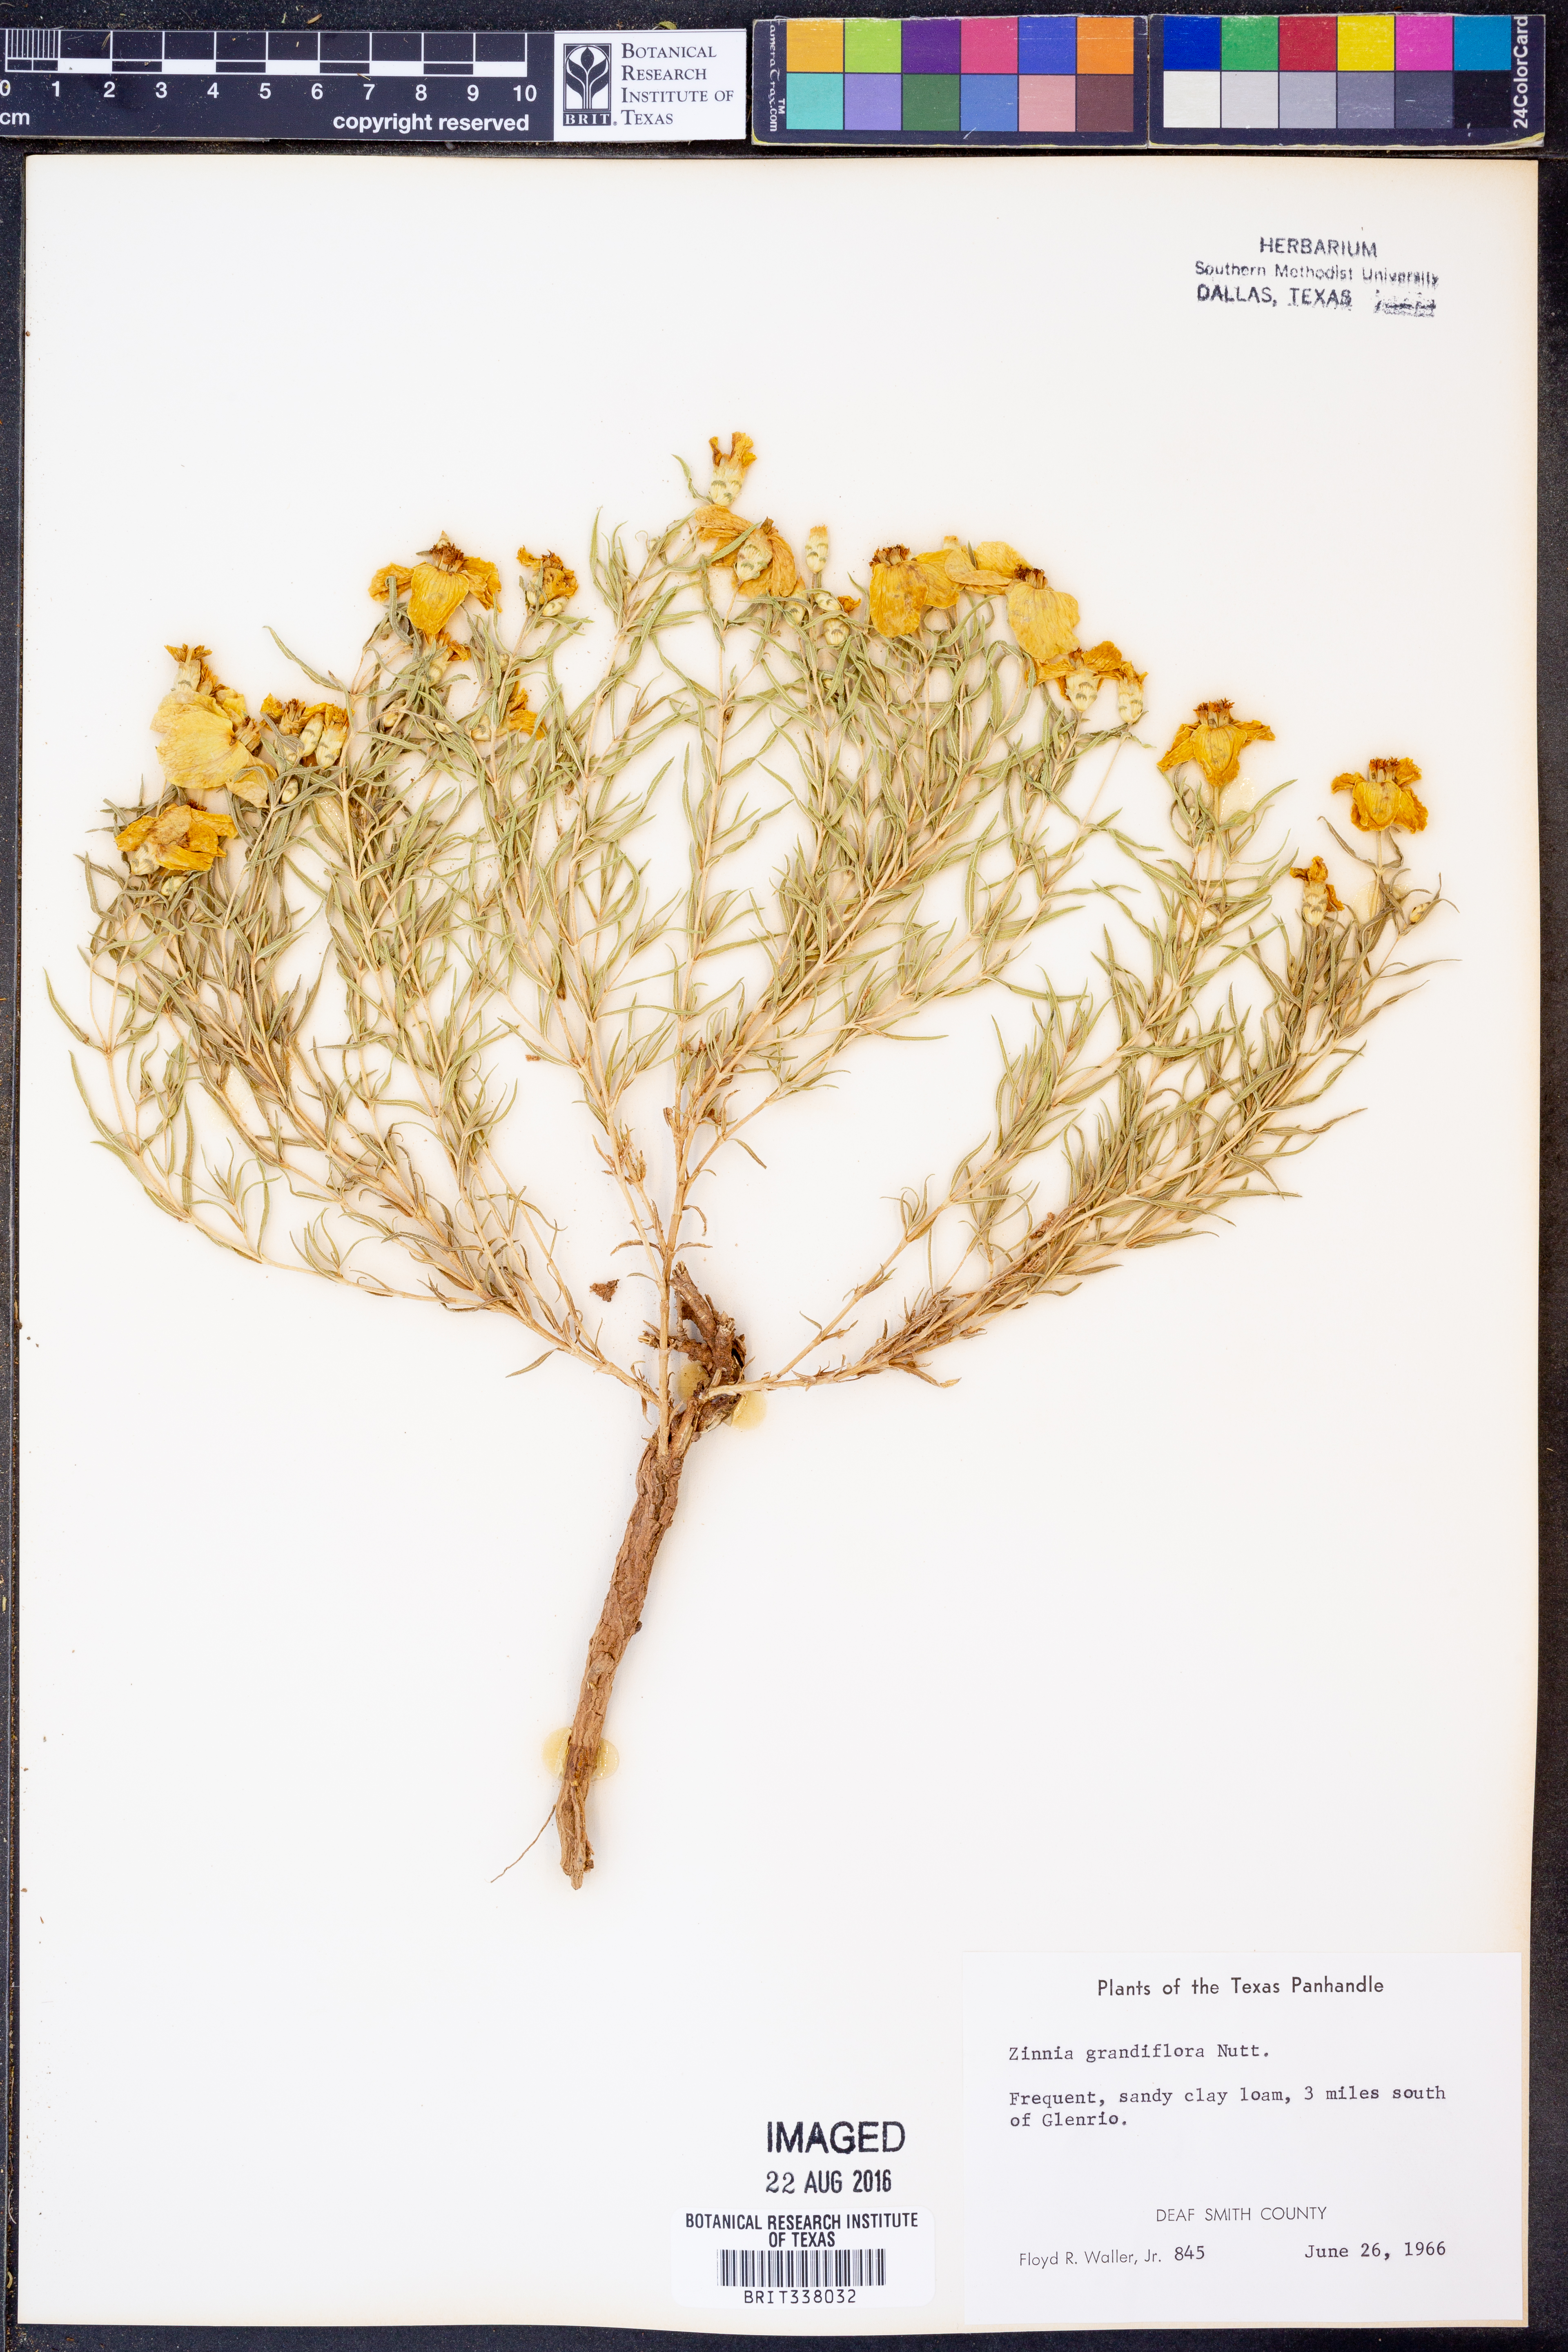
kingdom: Plantae
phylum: Tracheophyta
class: Magnoliopsida
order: Asterales
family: Asteraceae
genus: Zinnia
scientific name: Zinnia grandiflora
